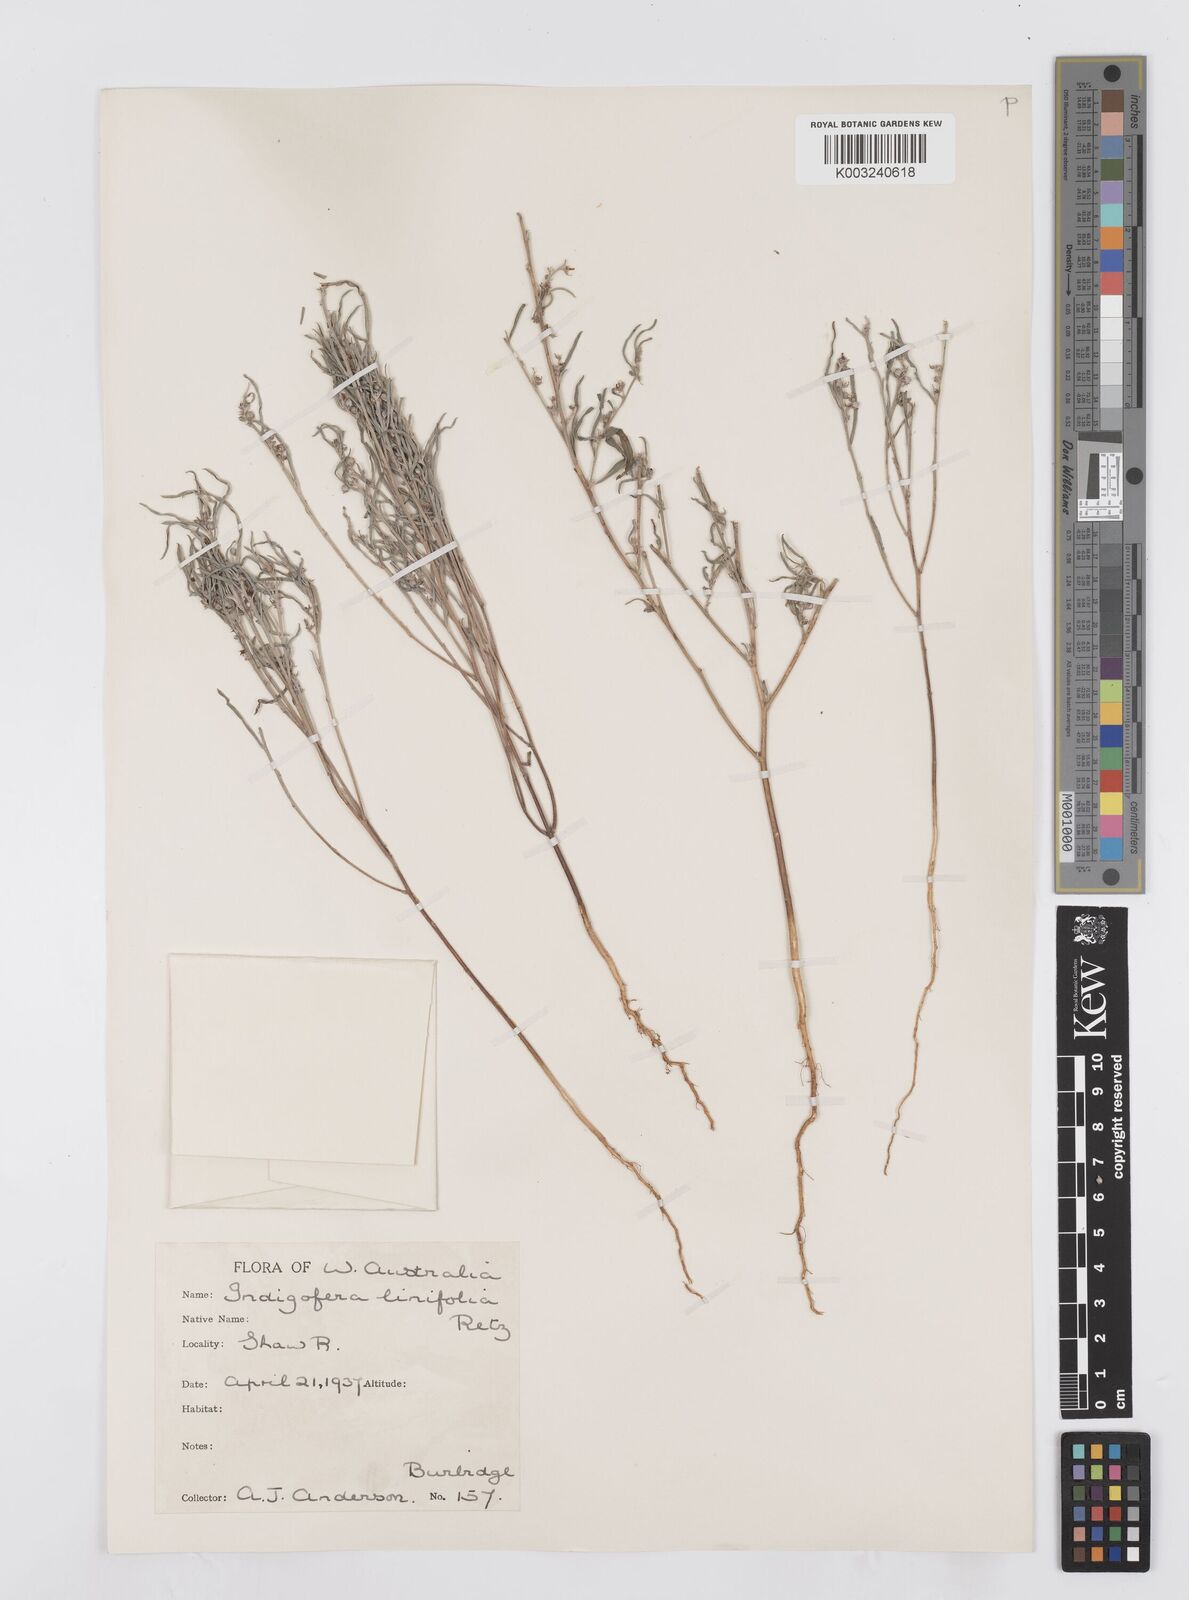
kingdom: Plantae
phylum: Tracheophyta
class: Magnoliopsida
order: Fabales
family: Fabaceae
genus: Indigofera
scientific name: Indigofera linifolia
